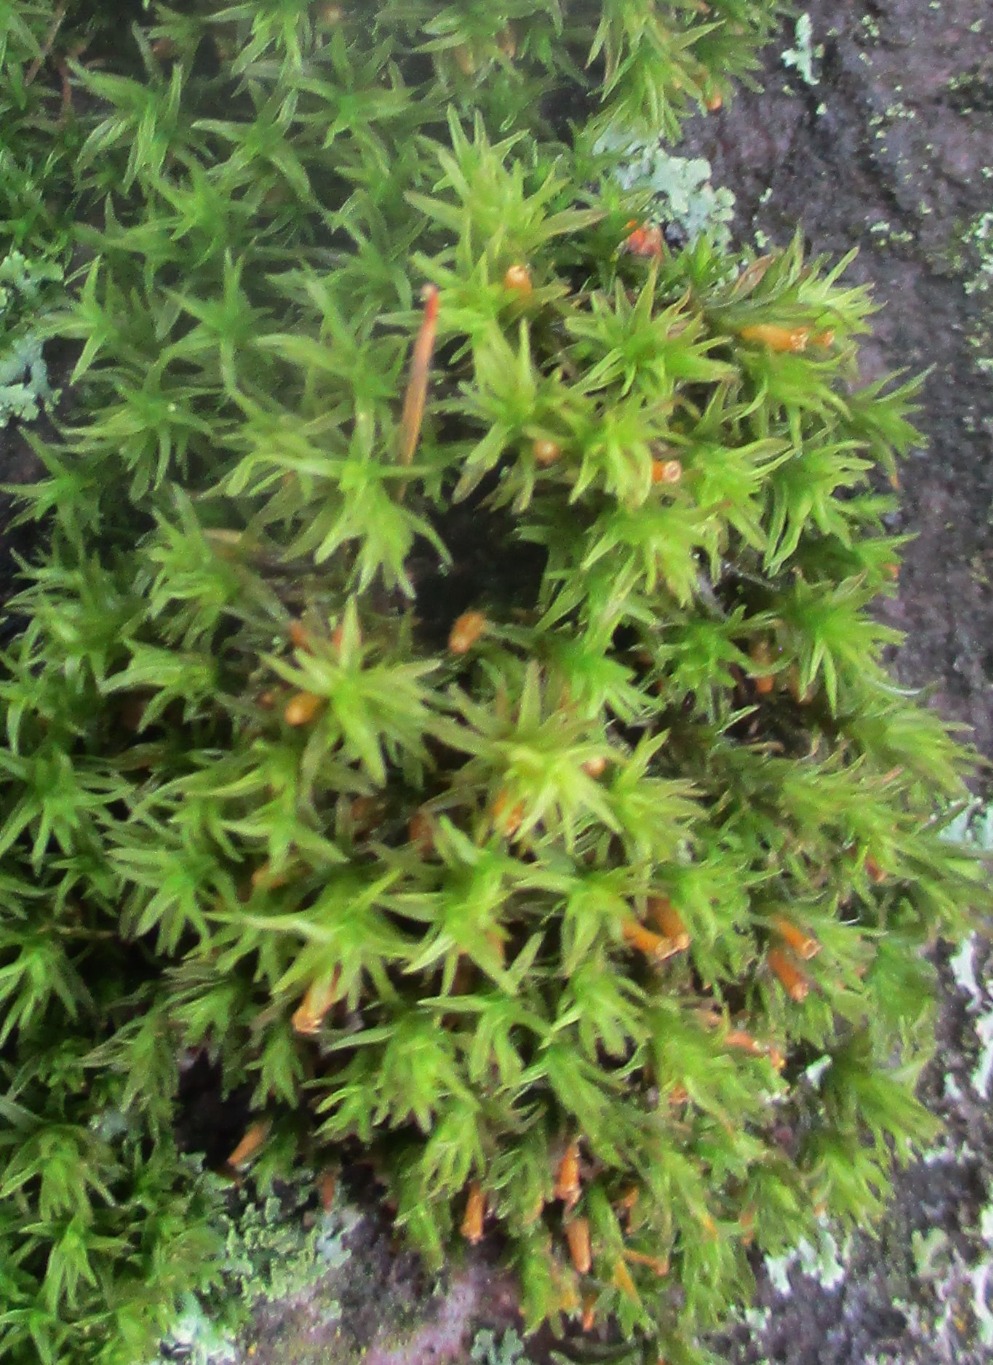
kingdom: Plantae
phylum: Bryophyta
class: Bryopsida
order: Orthotrichales
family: Orthotrichaceae
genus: Orthotrichum
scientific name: Orthotrichum
